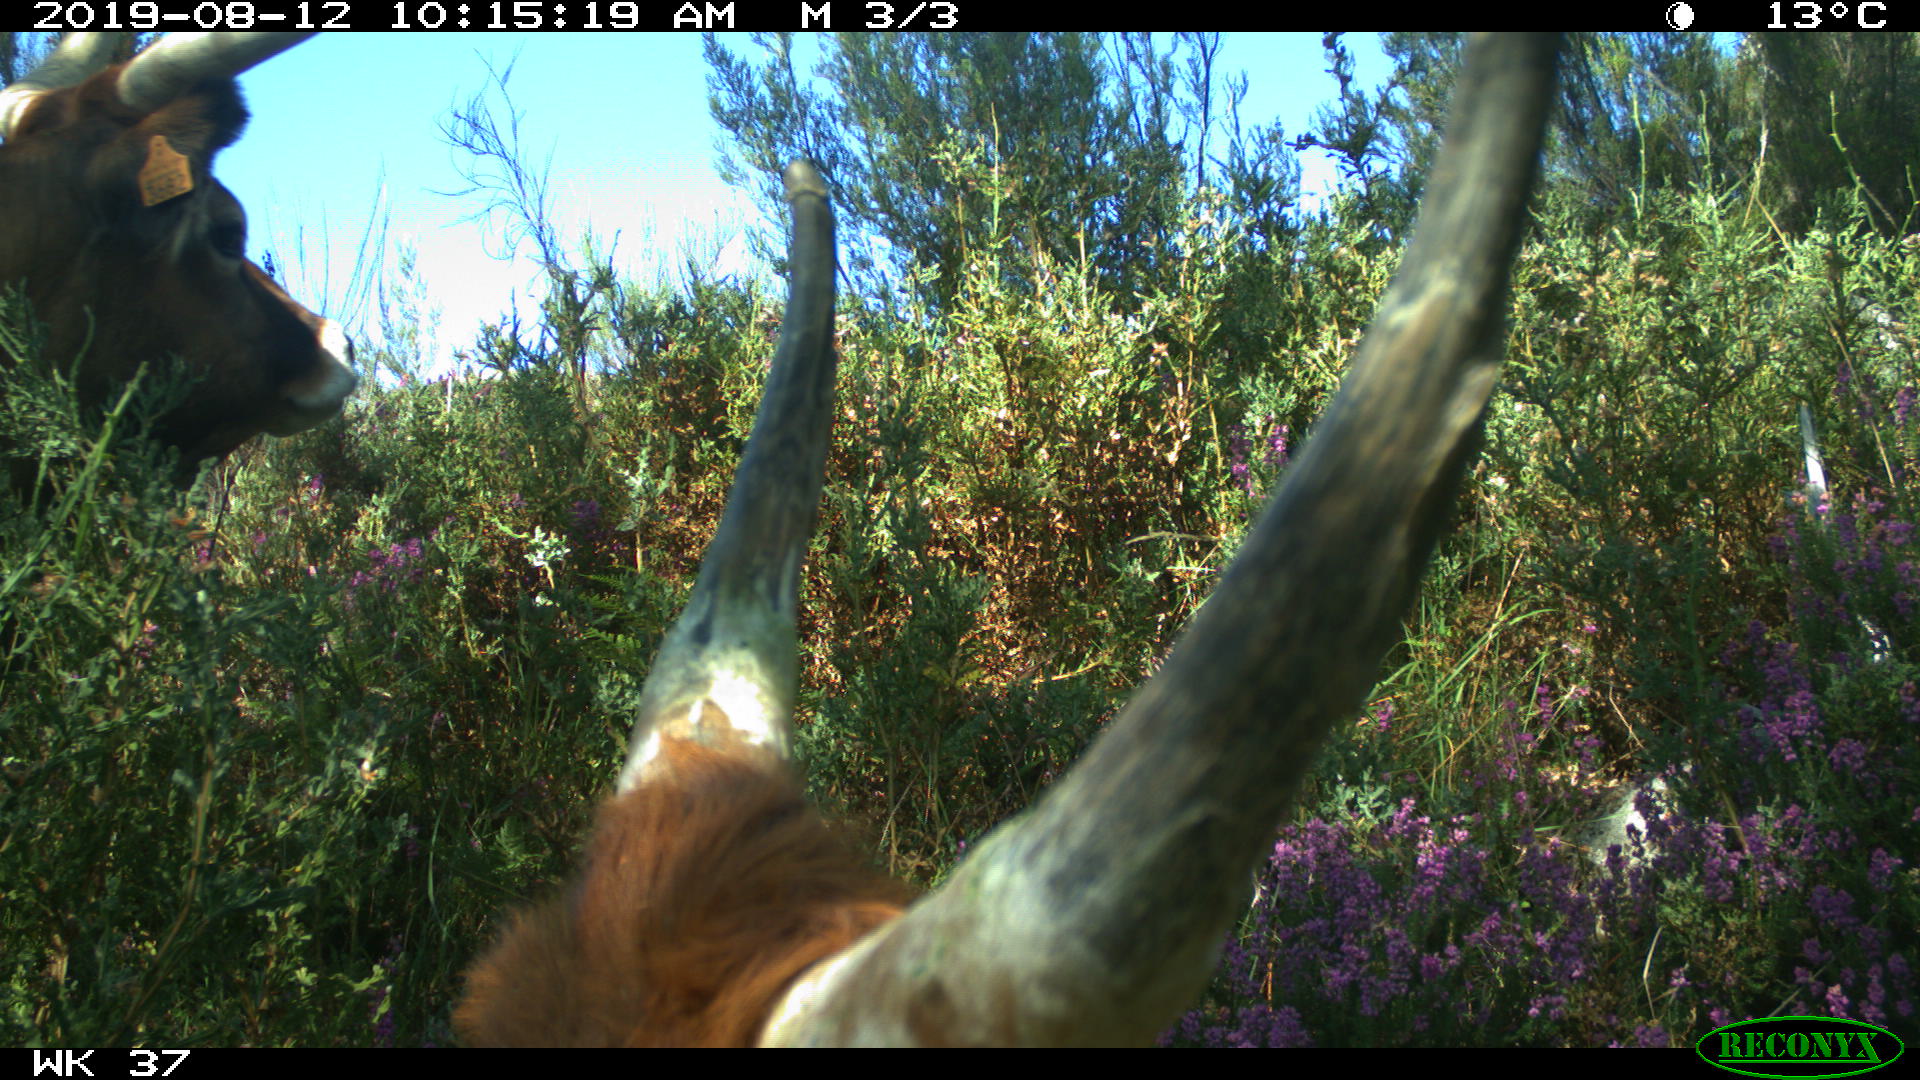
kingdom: Animalia
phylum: Chordata
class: Mammalia
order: Artiodactyla
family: Bovidae
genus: Bos
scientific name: Bos taurus
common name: Domesticated cattle
